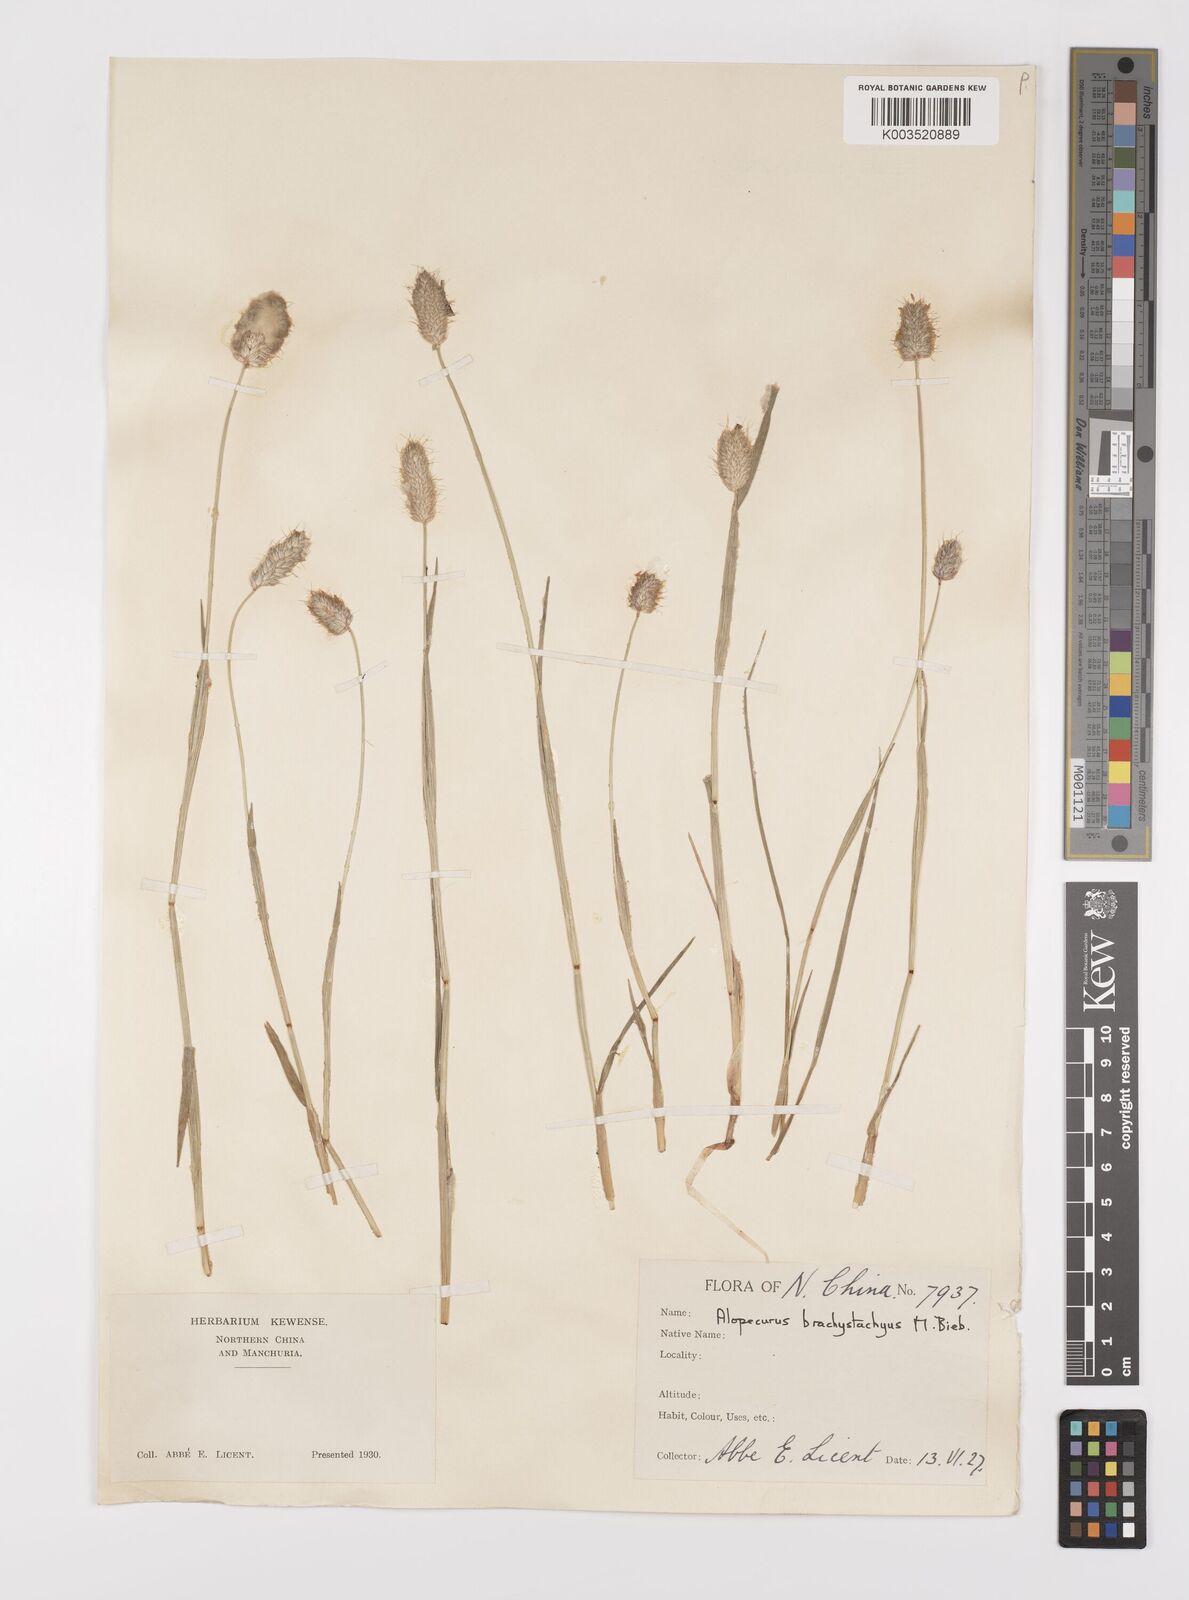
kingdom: Plantae
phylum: Tracheophyta
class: Liliopsida
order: Poales
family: Poaceae
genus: Alopecurus
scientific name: Alopecurus brachystachyus
